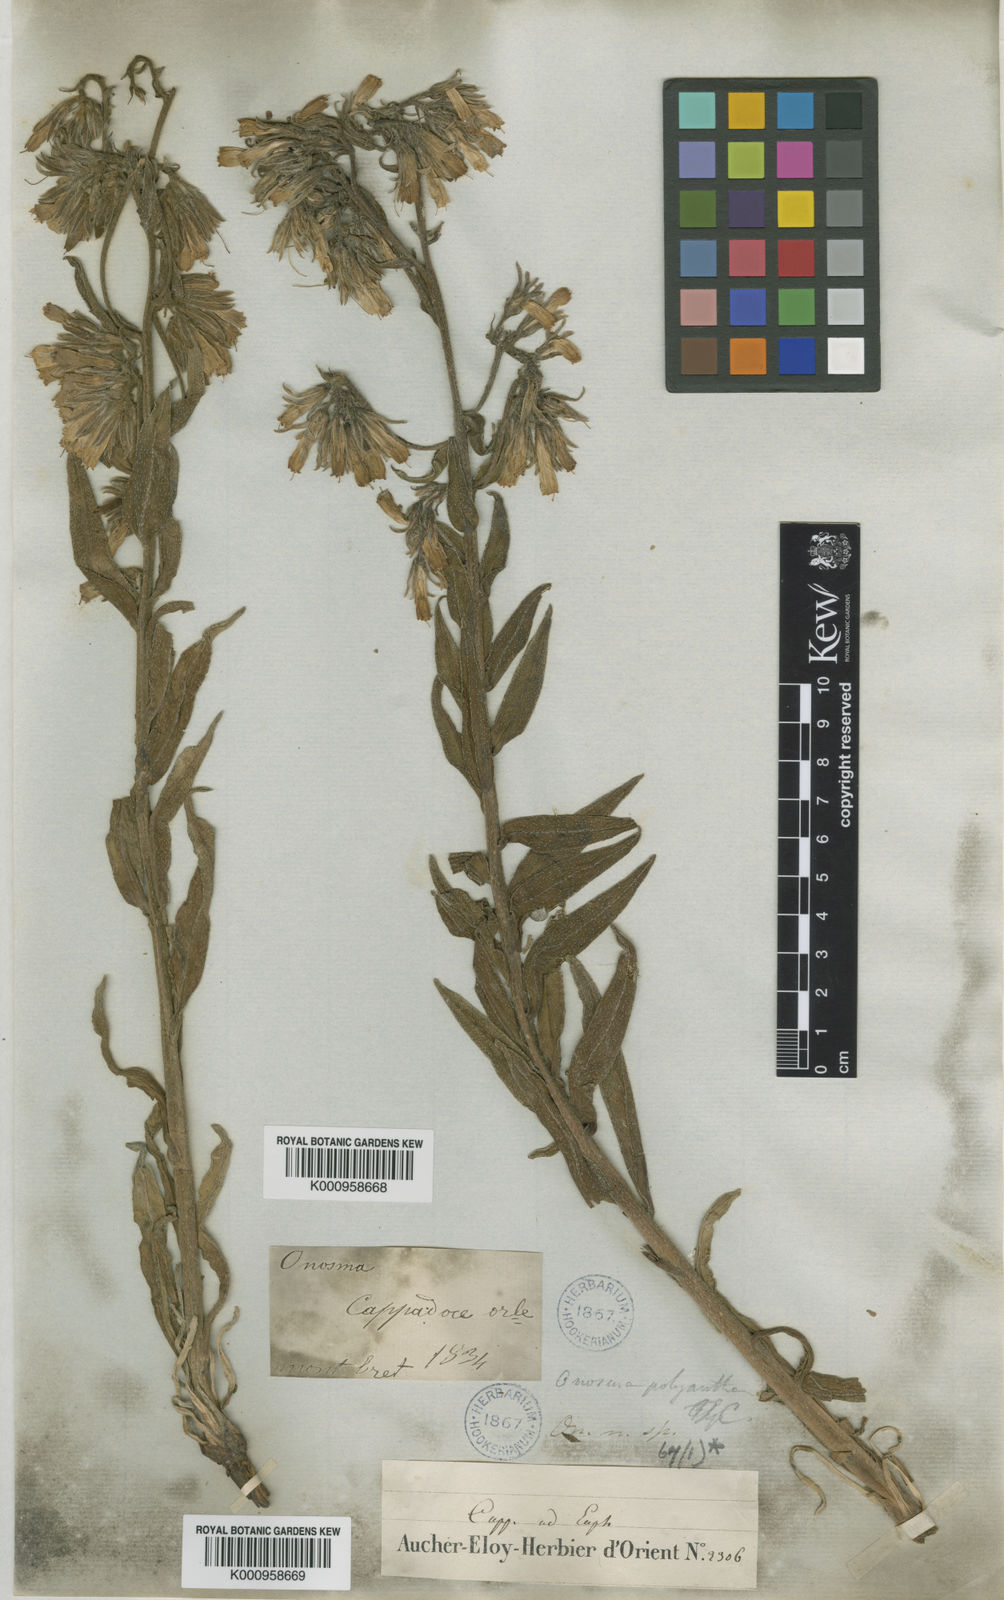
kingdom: Plantae
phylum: Tracheophyta
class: Magnoliopsida
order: Boraginales
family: Boraginaceae
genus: Onosma
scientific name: Onosma polyantha
